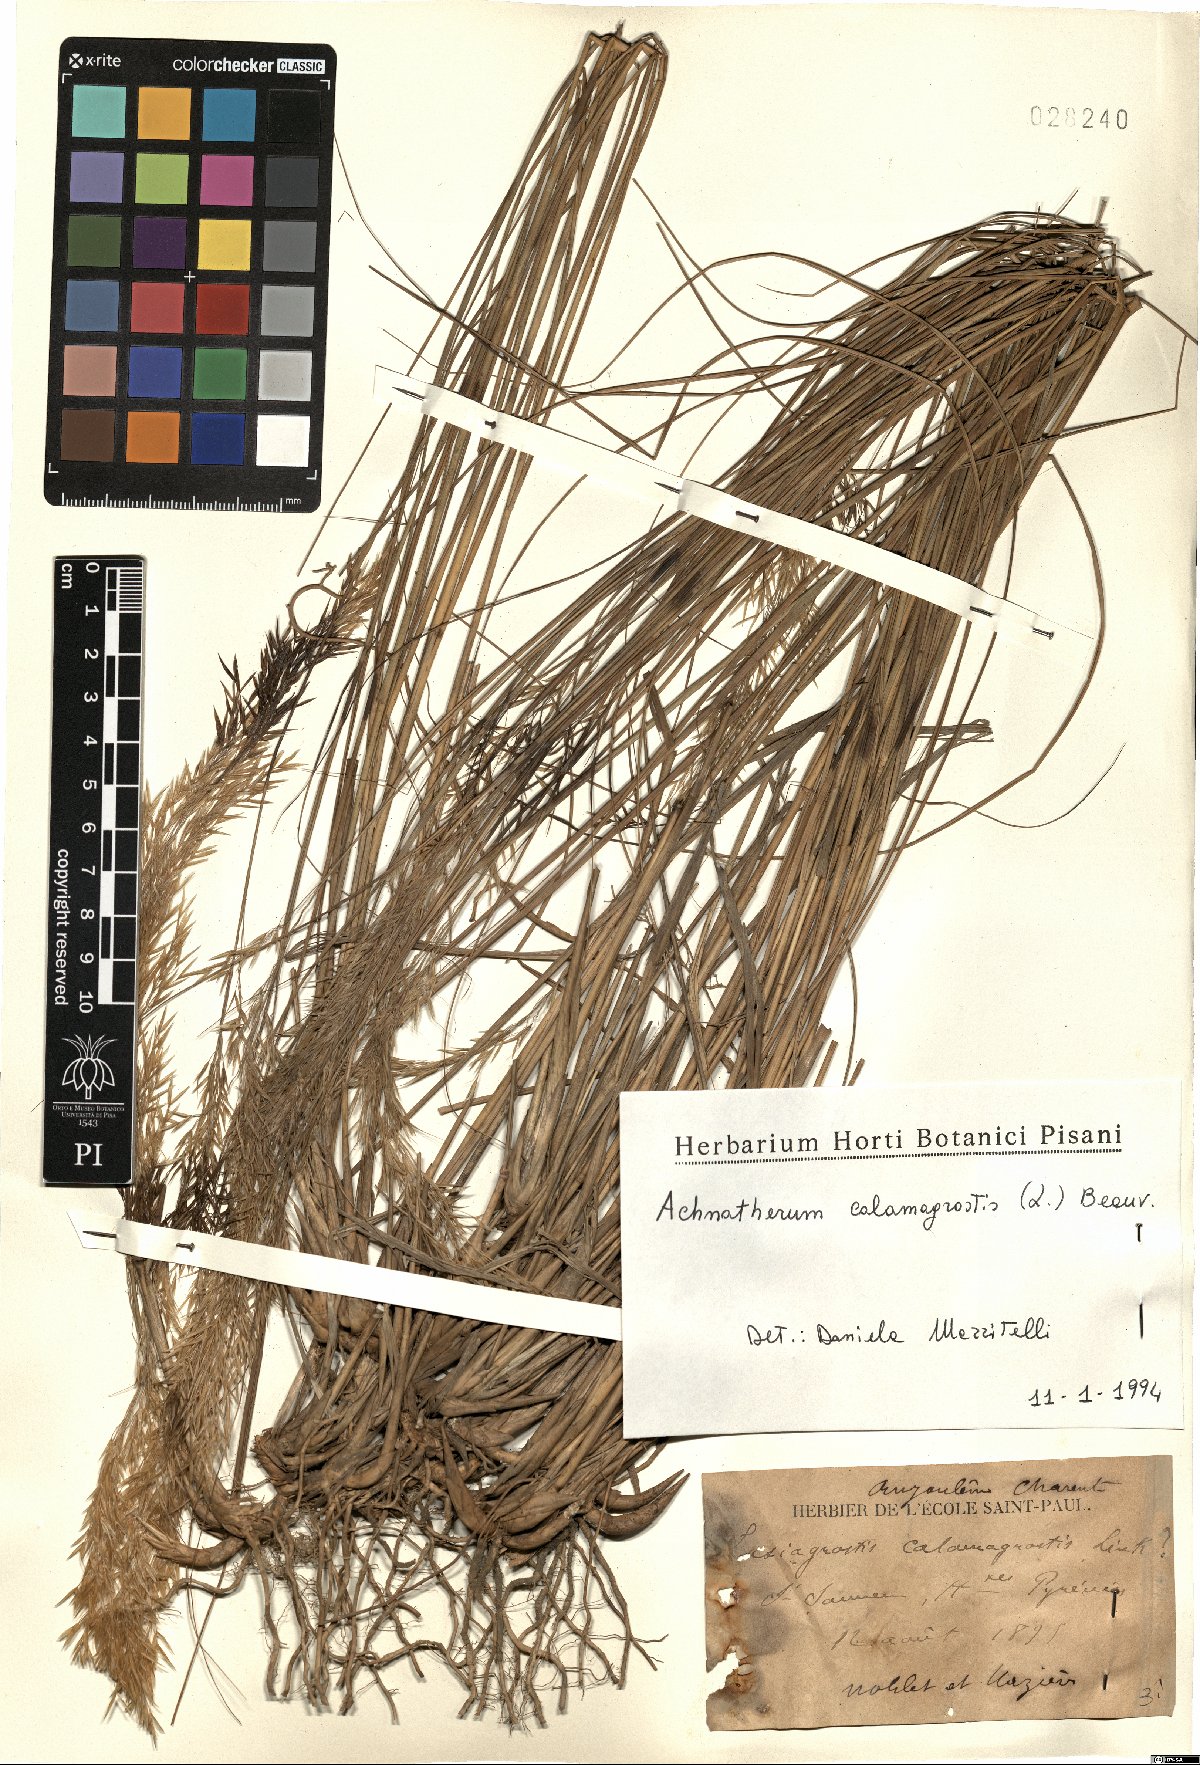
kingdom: Plantae
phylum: Tracheophyta
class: Liliopsida
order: Poales
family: Poaceae
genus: Achnatherum
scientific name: Achnatherum calamagrostis
